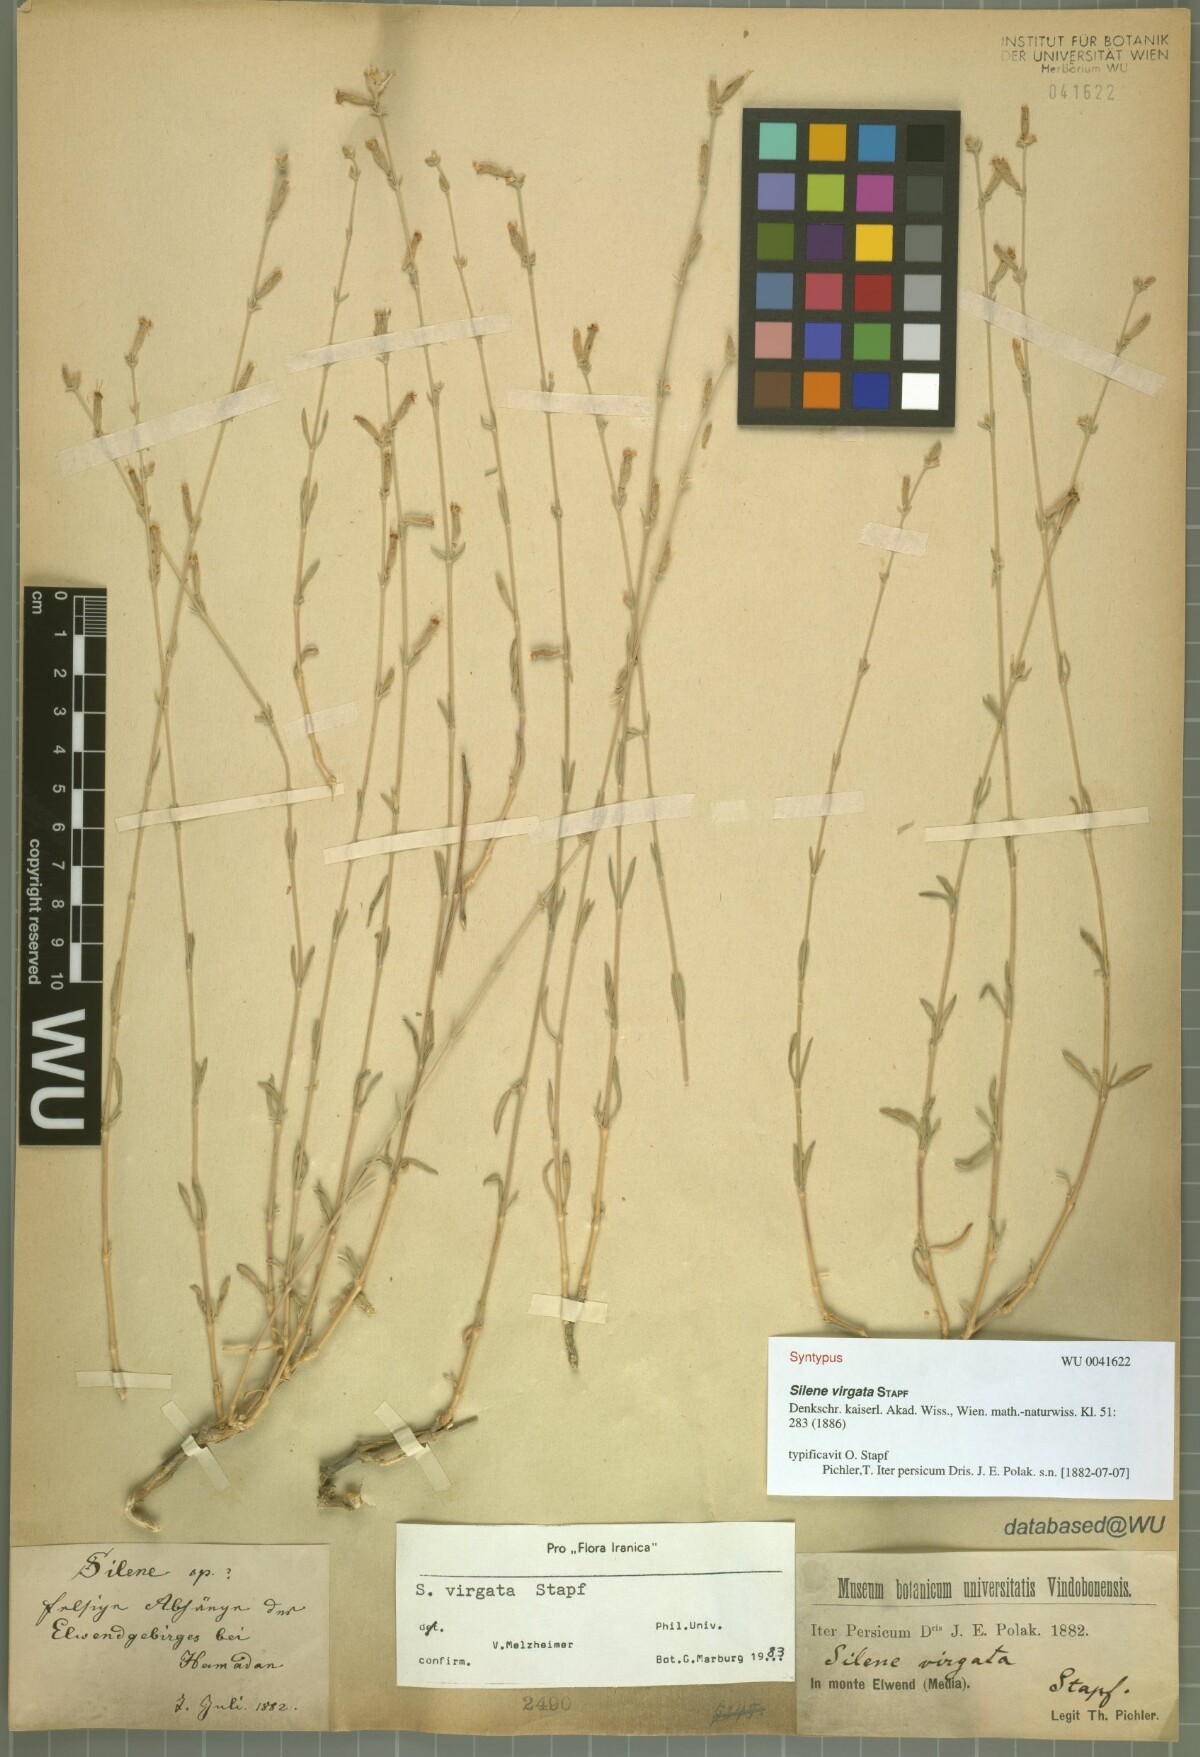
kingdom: Plantae
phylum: Tracheophyta
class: Magnoliopsida
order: Caryophyllales
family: Caryophyllaceae
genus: Silene
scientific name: Silene virgata
